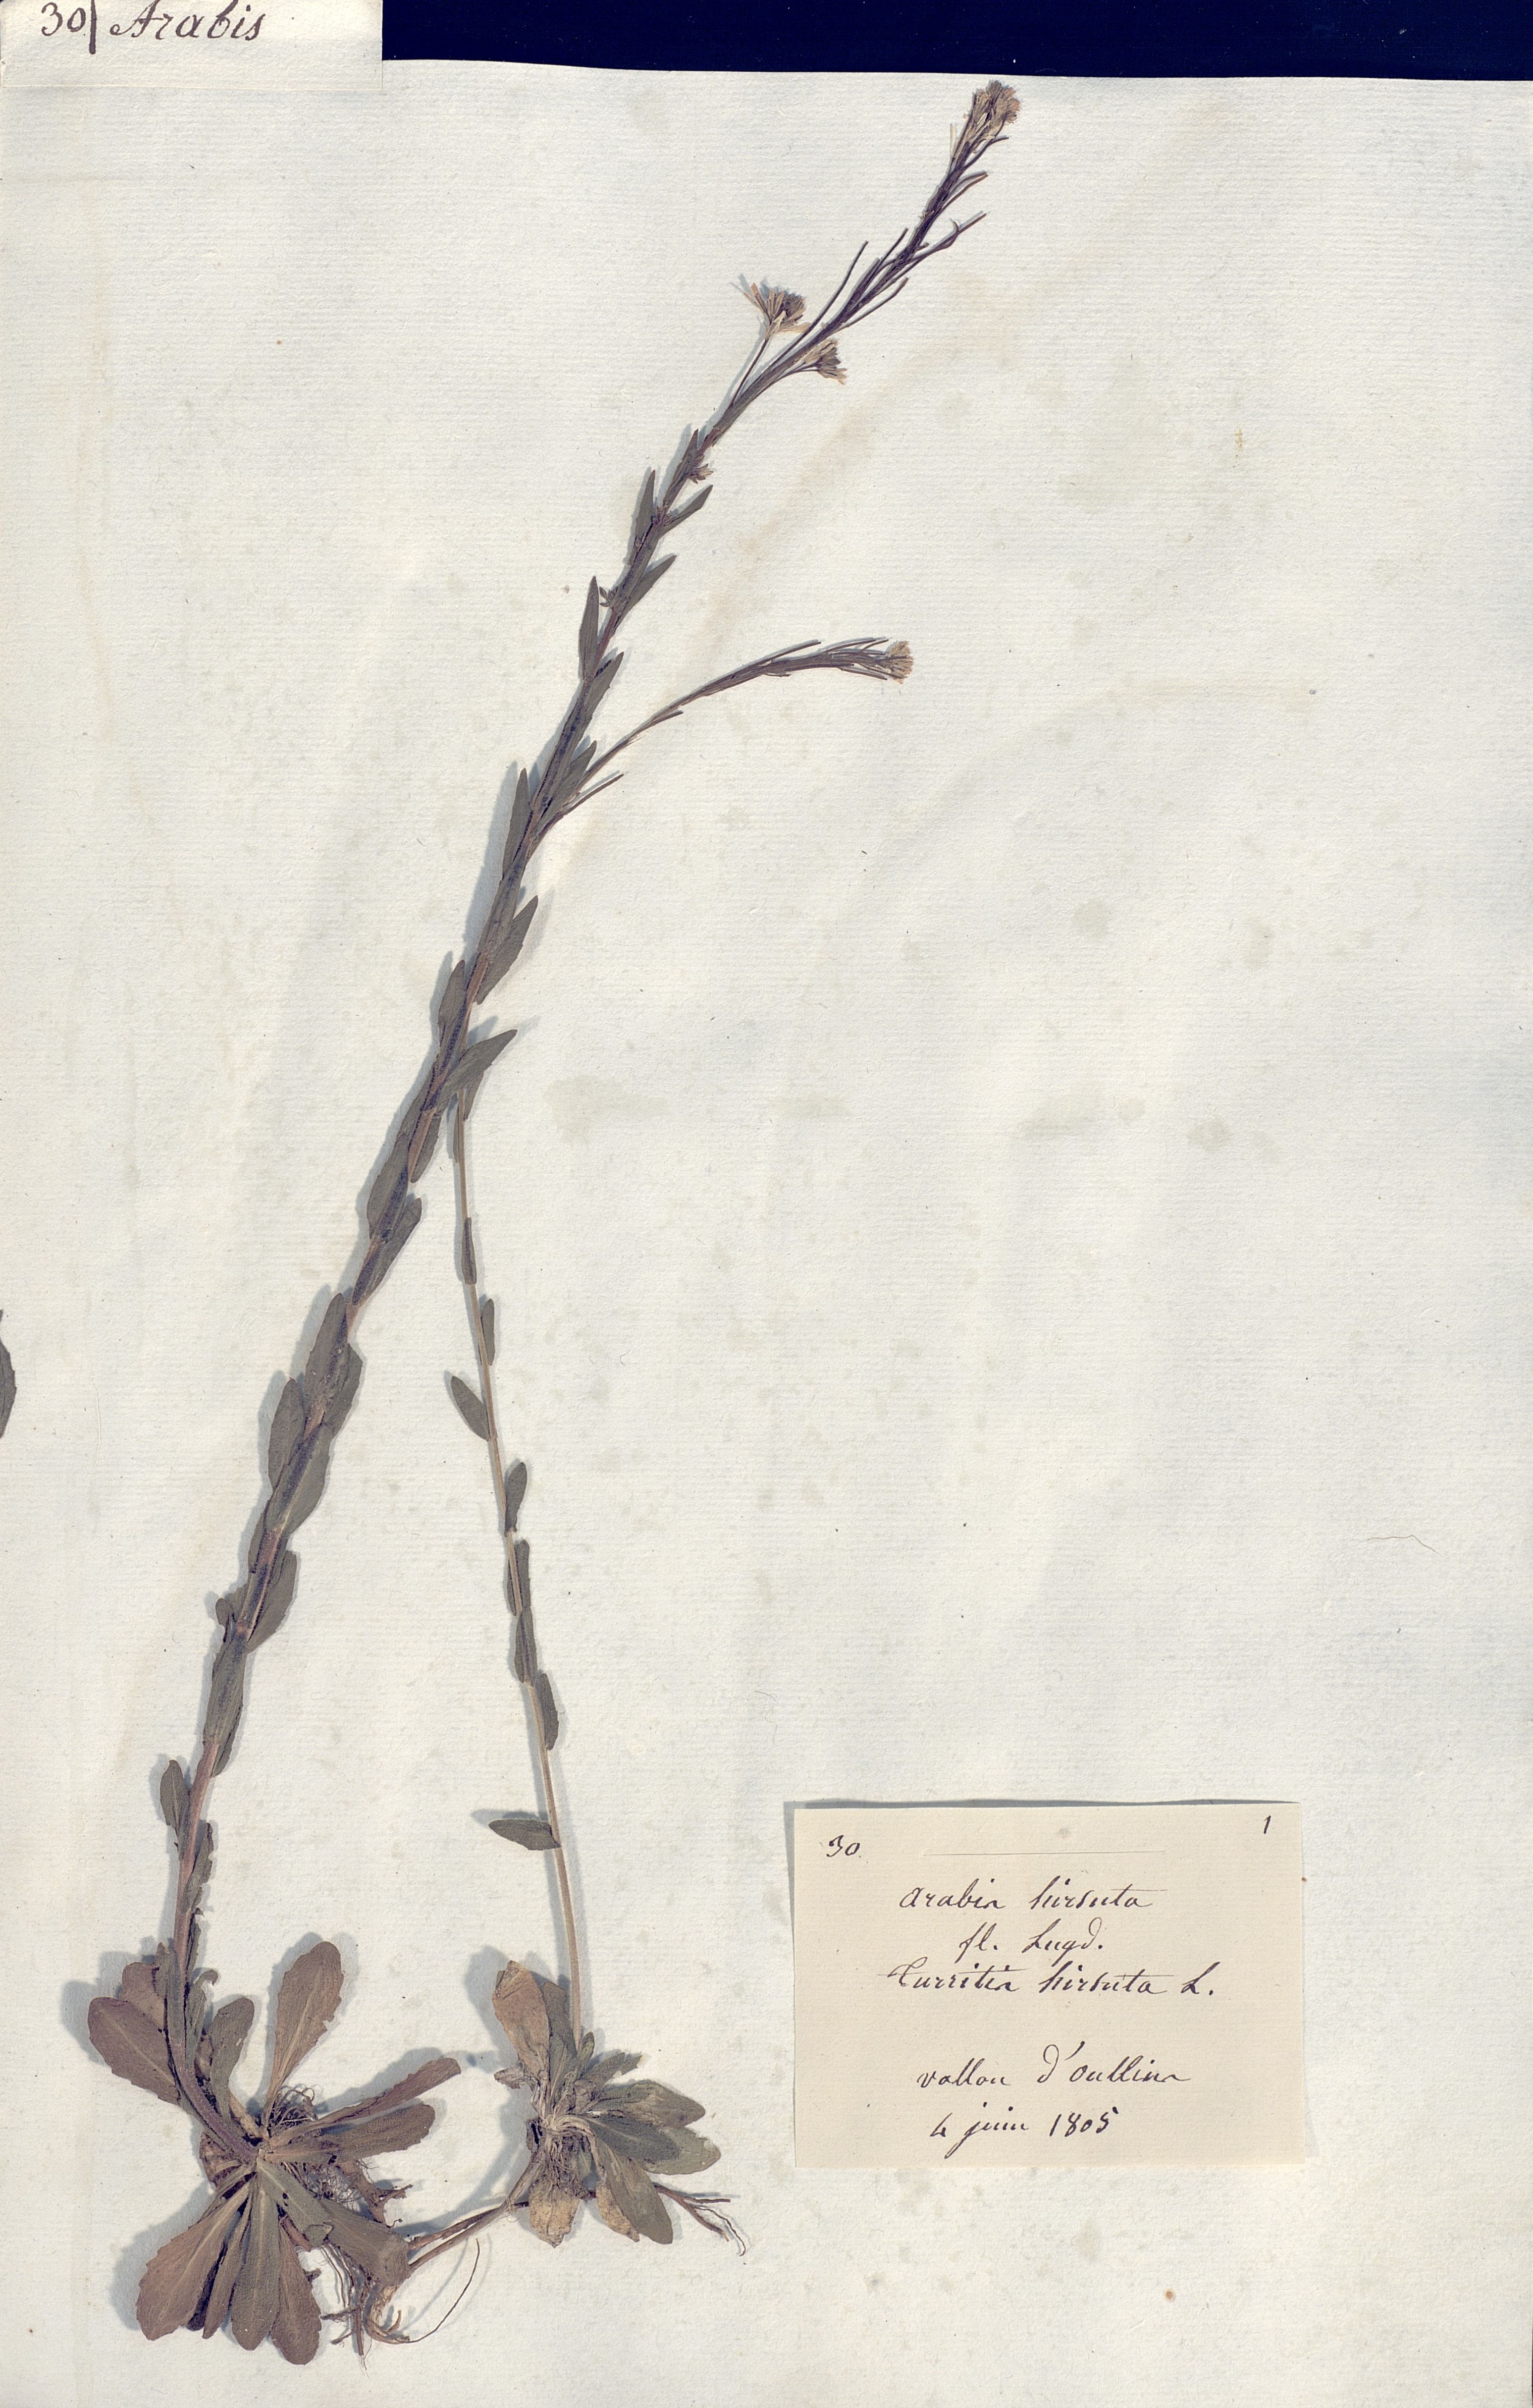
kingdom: Plantae
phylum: Tracheophyta
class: Magnoliopsida
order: Brassicales
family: Brassicaceae
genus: Arabis
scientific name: Arabis hirsuta
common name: Hairy rock-cress
